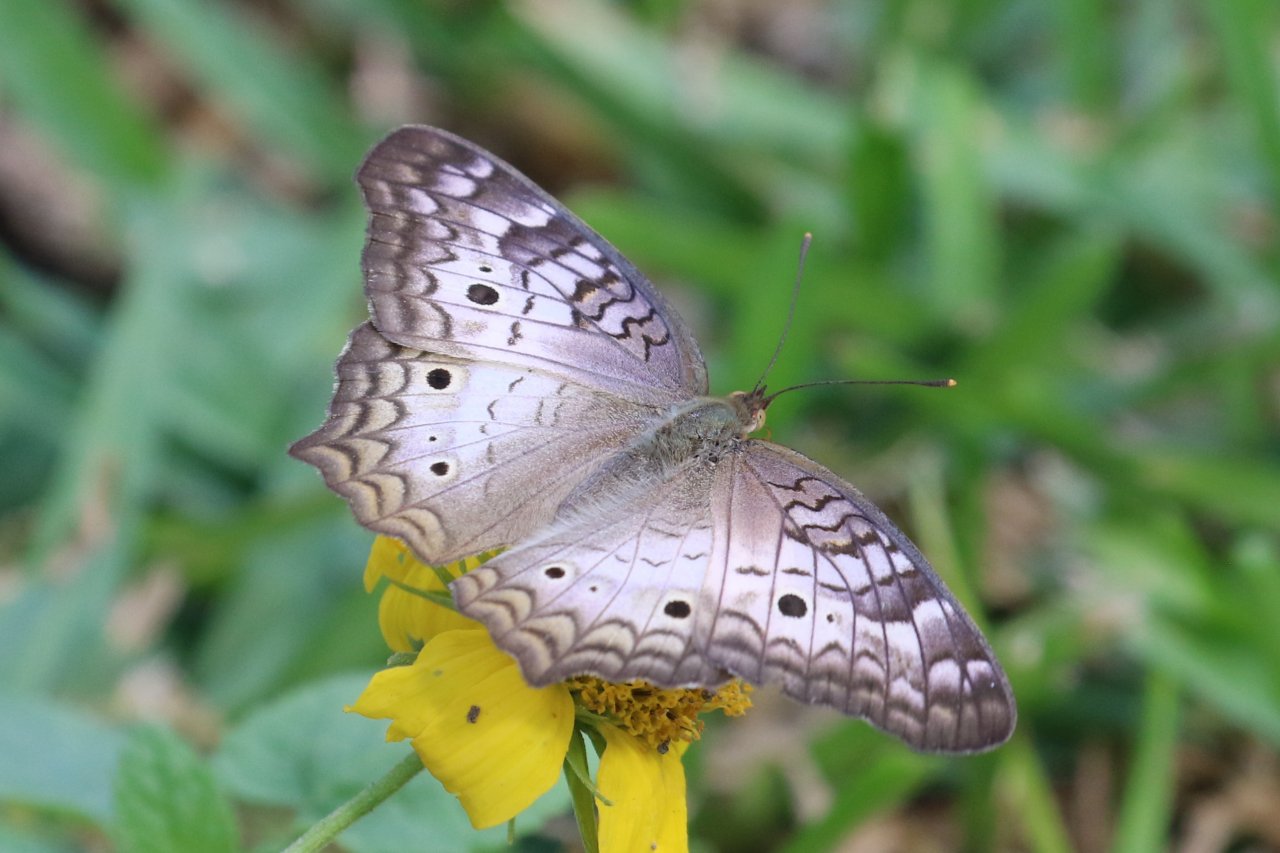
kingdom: Animalia
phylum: Arthropoda
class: Insecta
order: Lepidoptera
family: Nymphalidae
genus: Anartia
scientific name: Anartia jatrophae
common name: White Peacock
